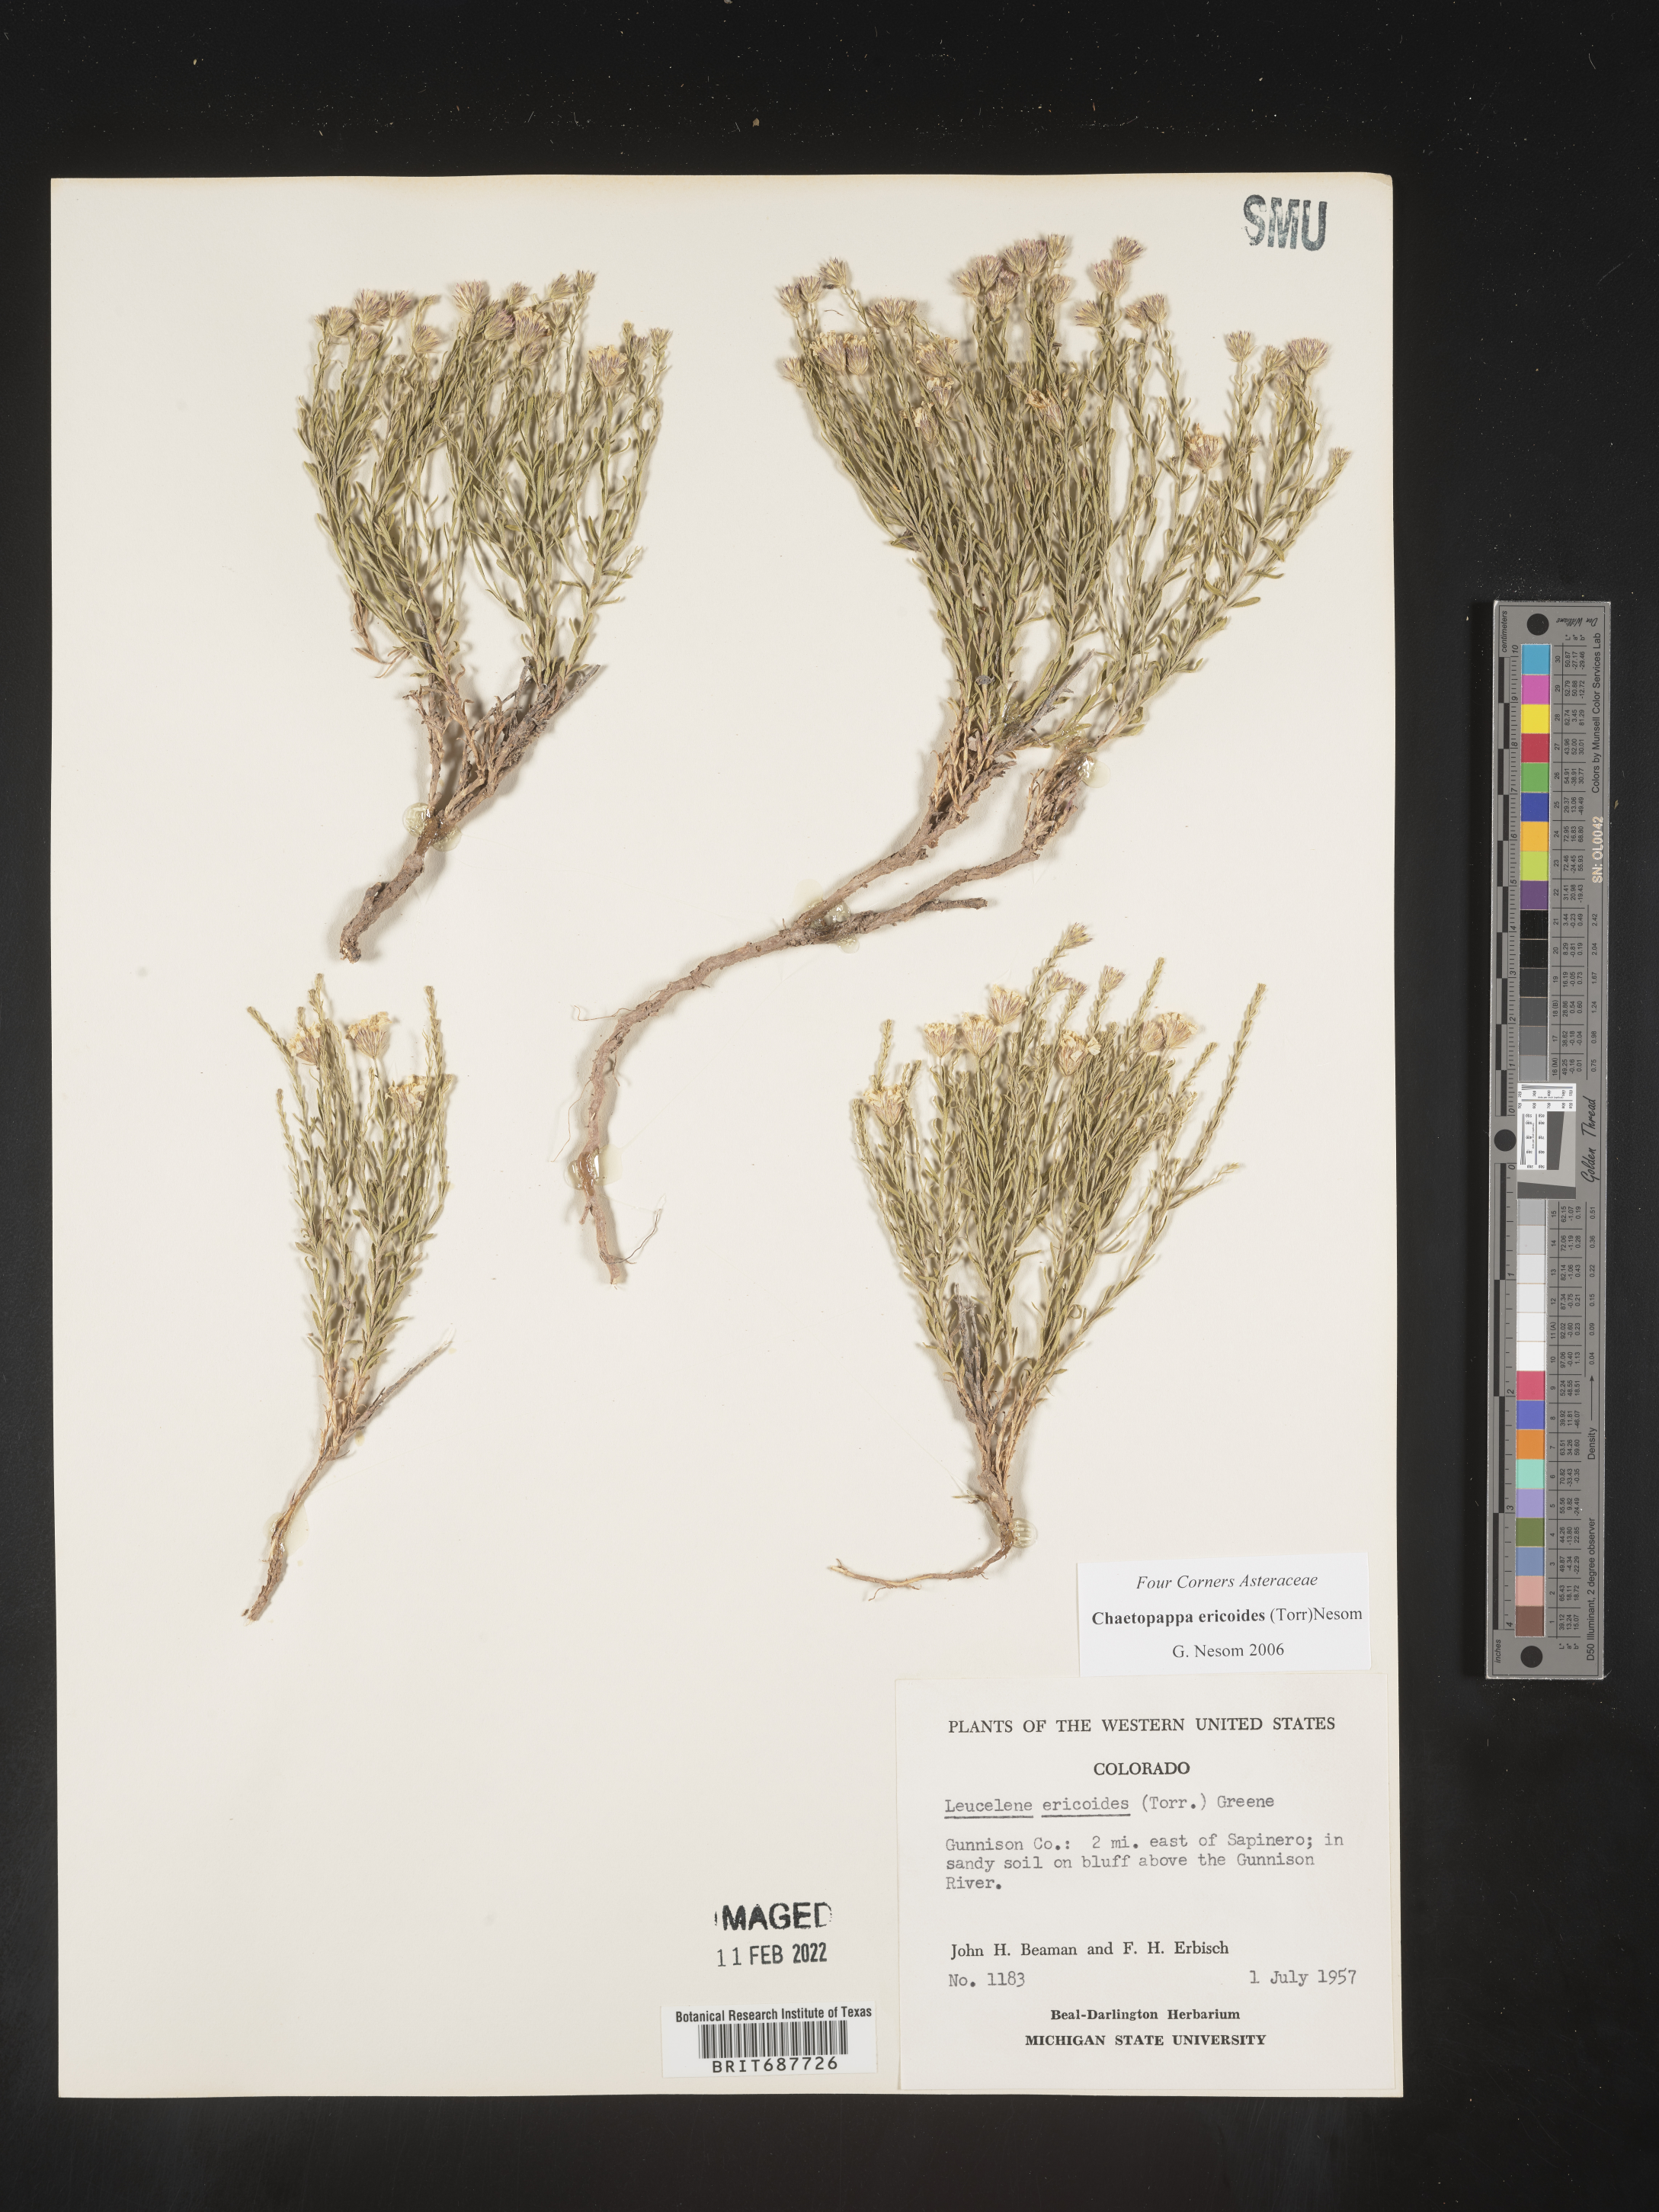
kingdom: Plantae
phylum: Tracheophyta
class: Magnoliopsida
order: Asterales
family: Asteraceae
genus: Chaetopappa
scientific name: Chaetopappa ericoides
